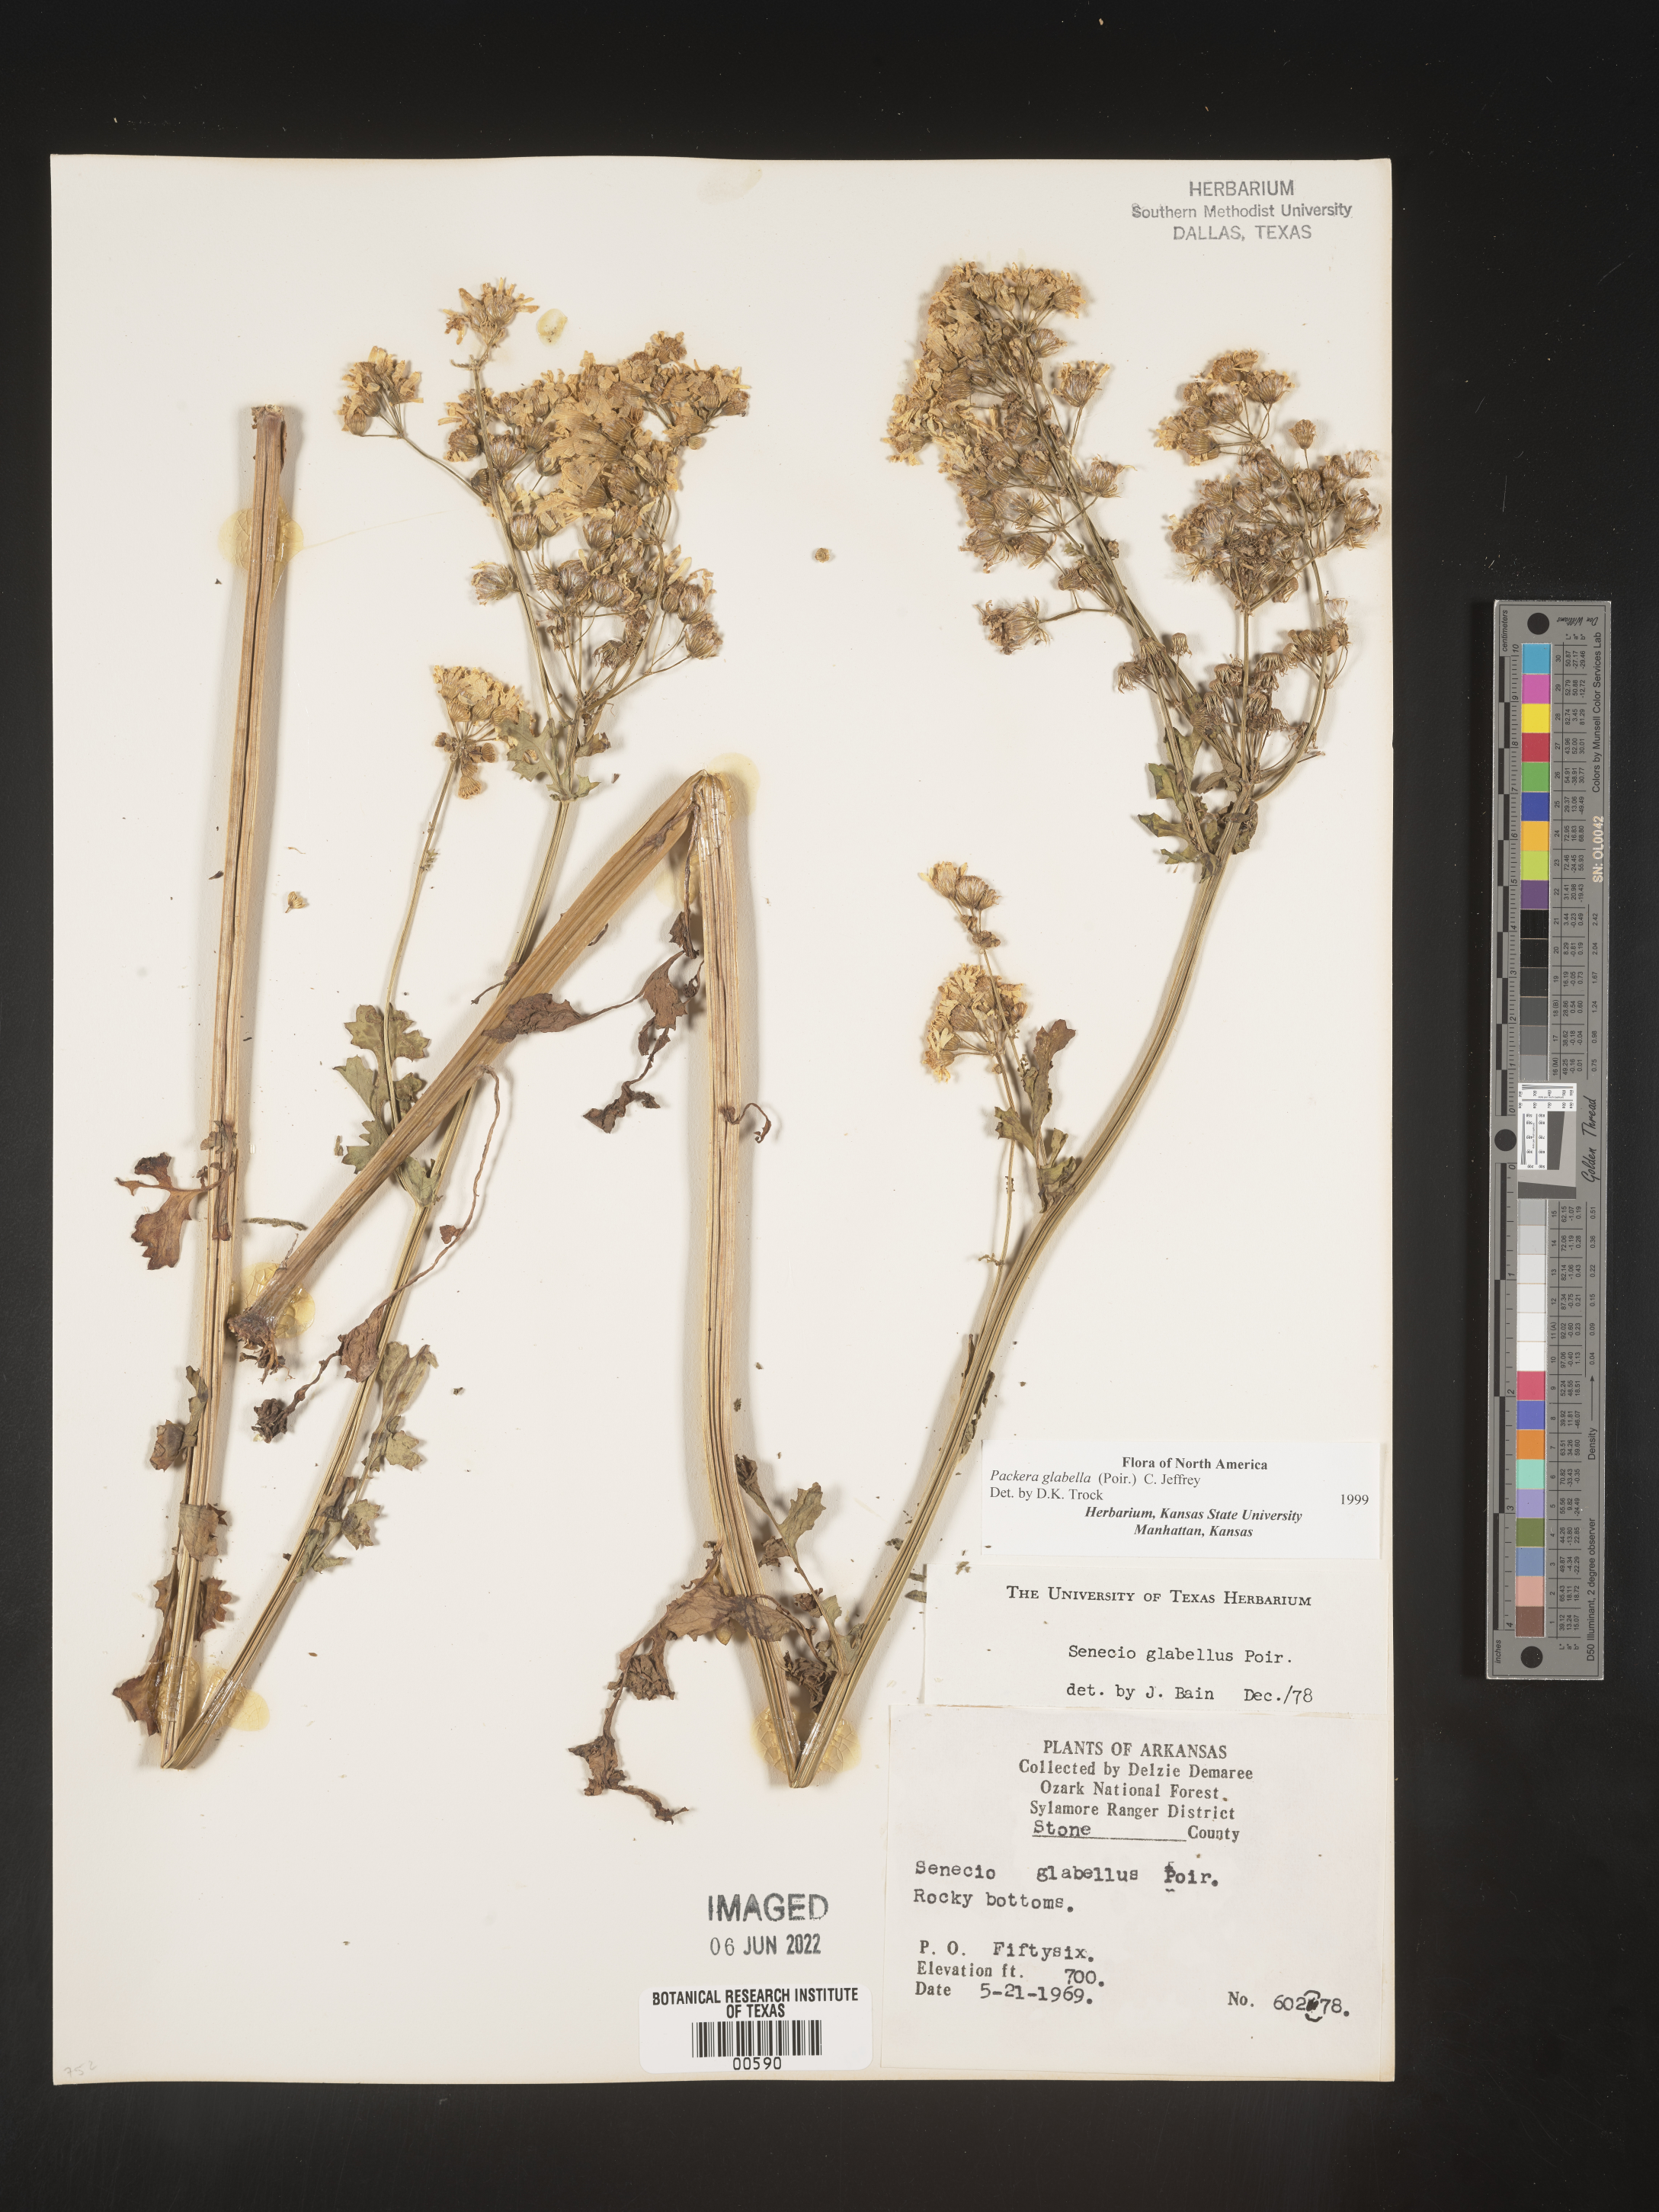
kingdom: Plantae
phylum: Tracheophyta
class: Magnoliopsida
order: Asterales
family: Asteraceae
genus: Packera
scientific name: Packera glabella
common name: Butterweed
